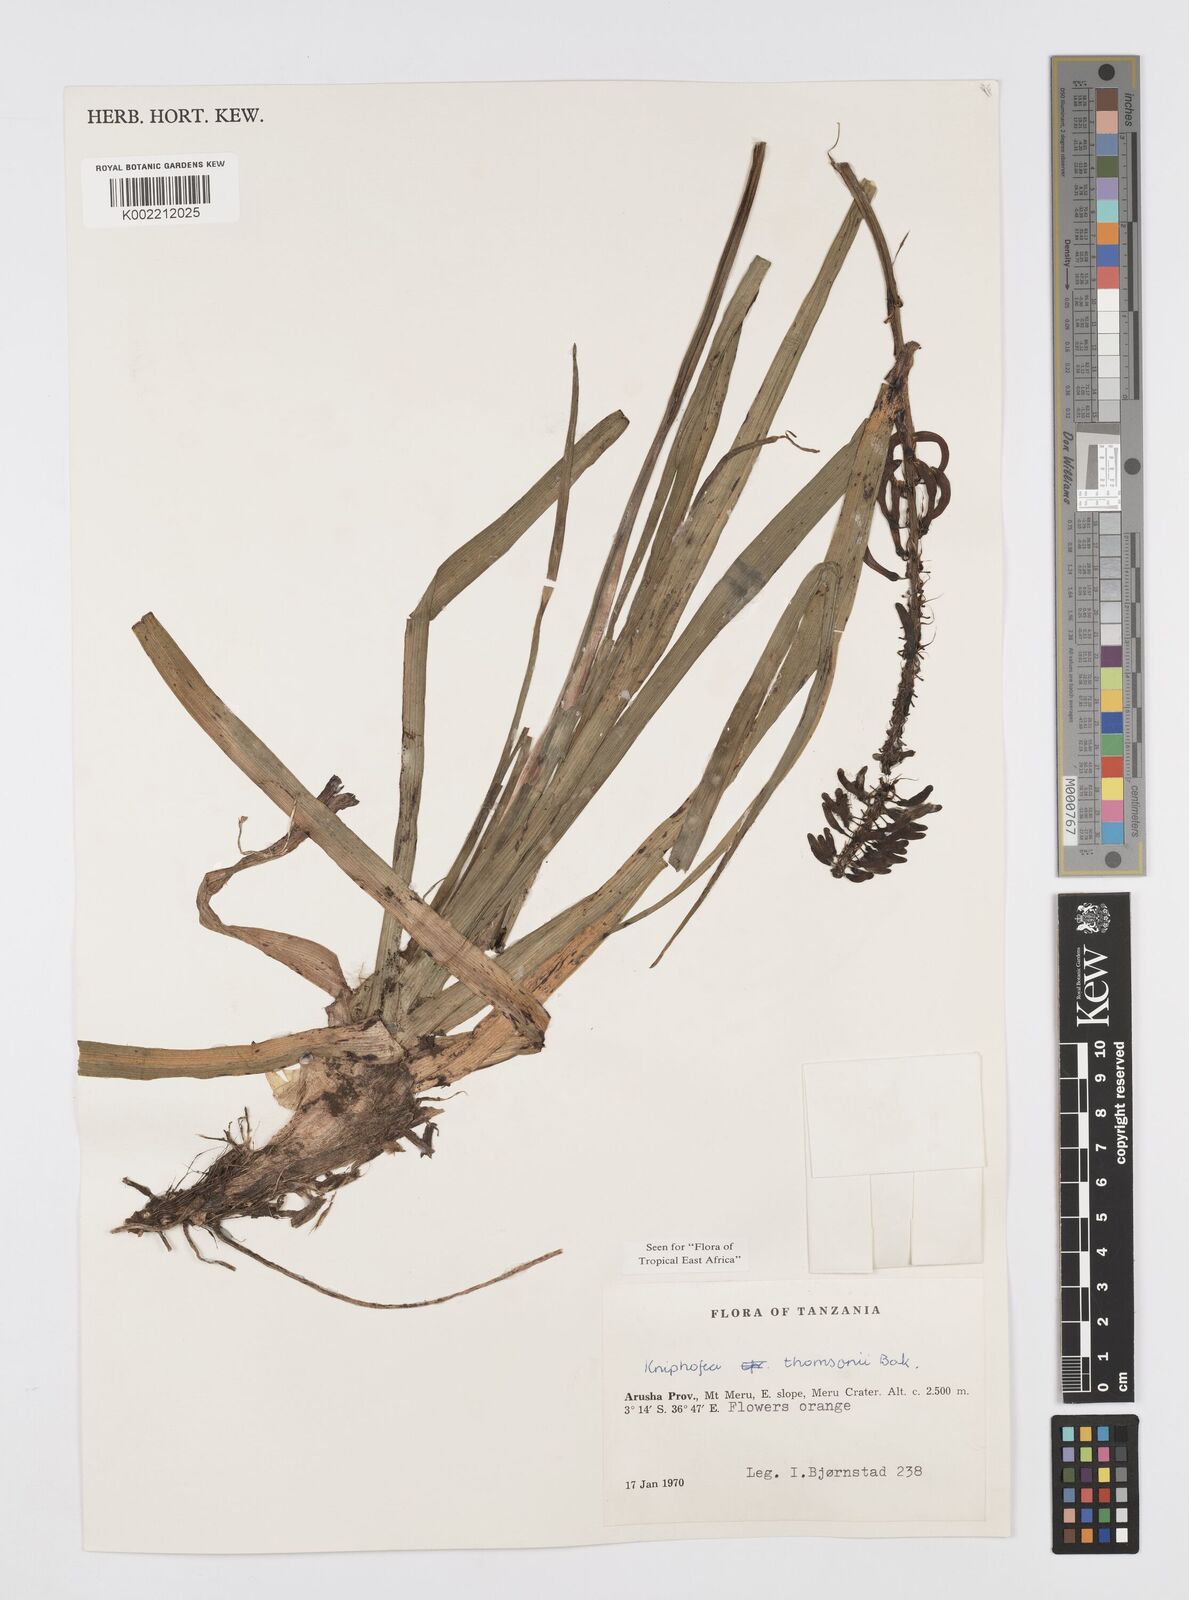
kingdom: Plantae
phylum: Tracheophyta
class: Liliopsida
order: Asparagales
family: Asphodelaceae
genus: Kniphofia
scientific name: Kniphofia thomsonii
